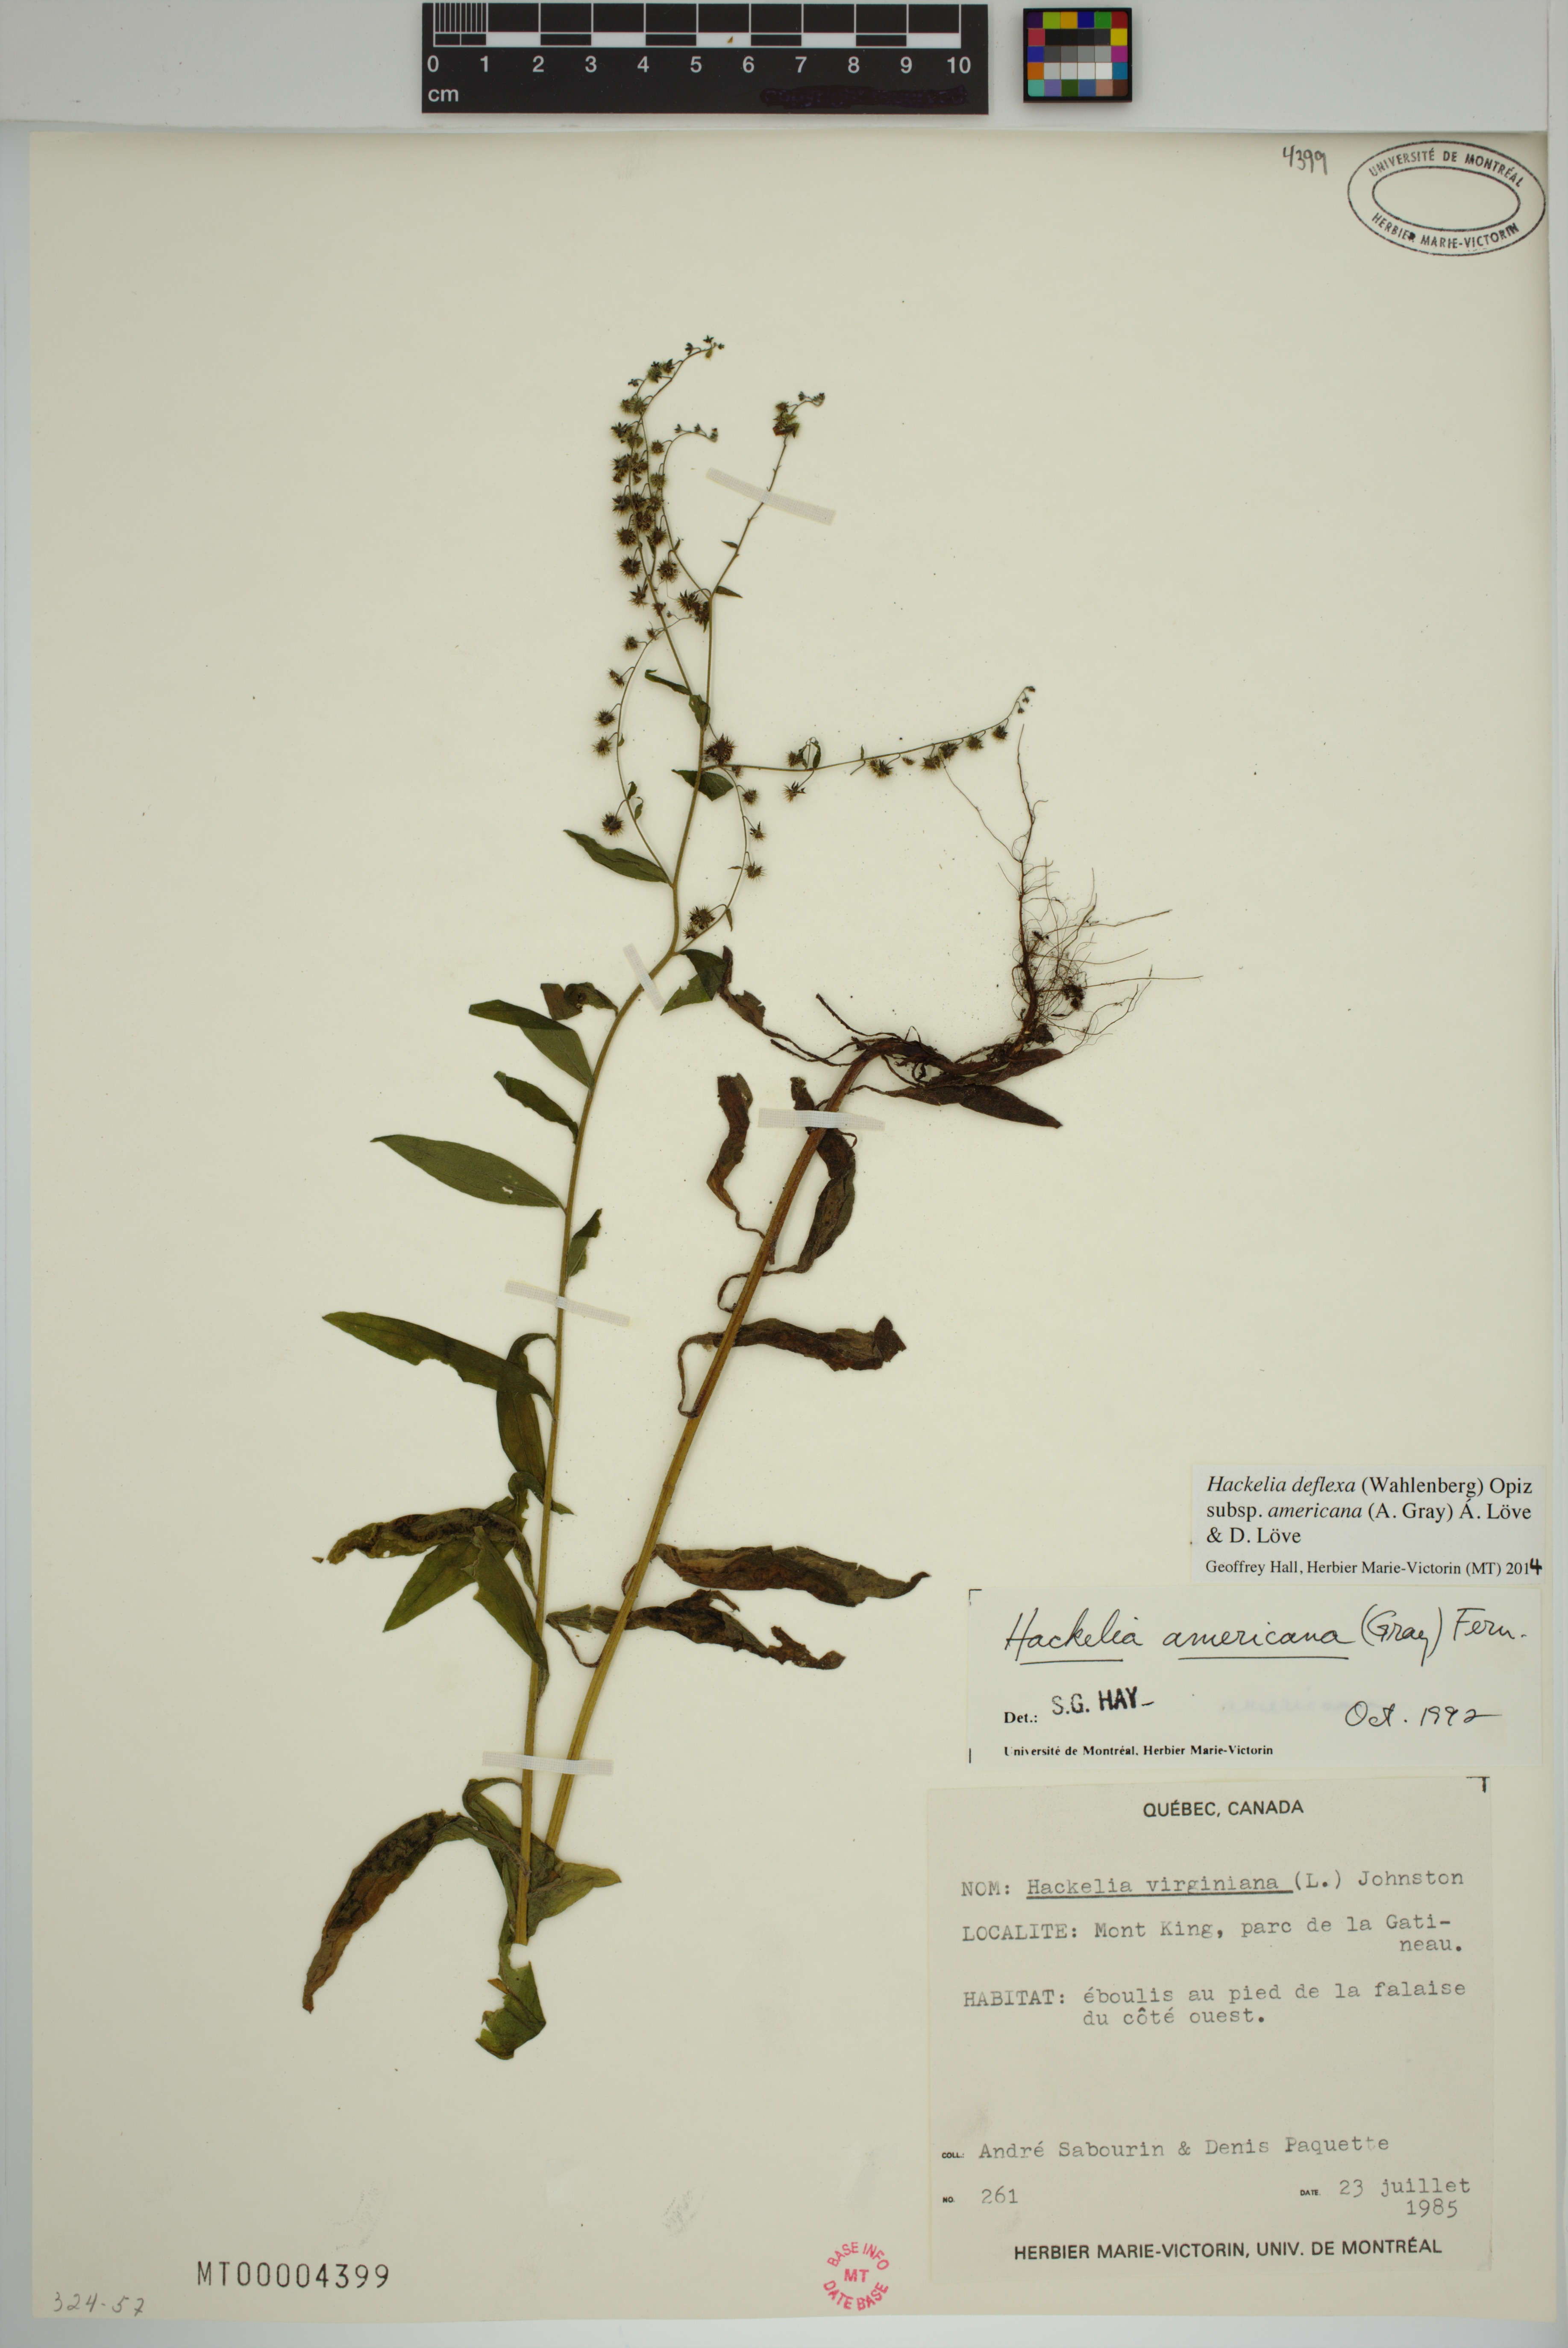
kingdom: Plantae
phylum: Tracheophyta
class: Magnoliopsida
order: Boraginales
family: Boraginaceae
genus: Hackelia
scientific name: Hackelia deflexa
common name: Nodding stickseed
